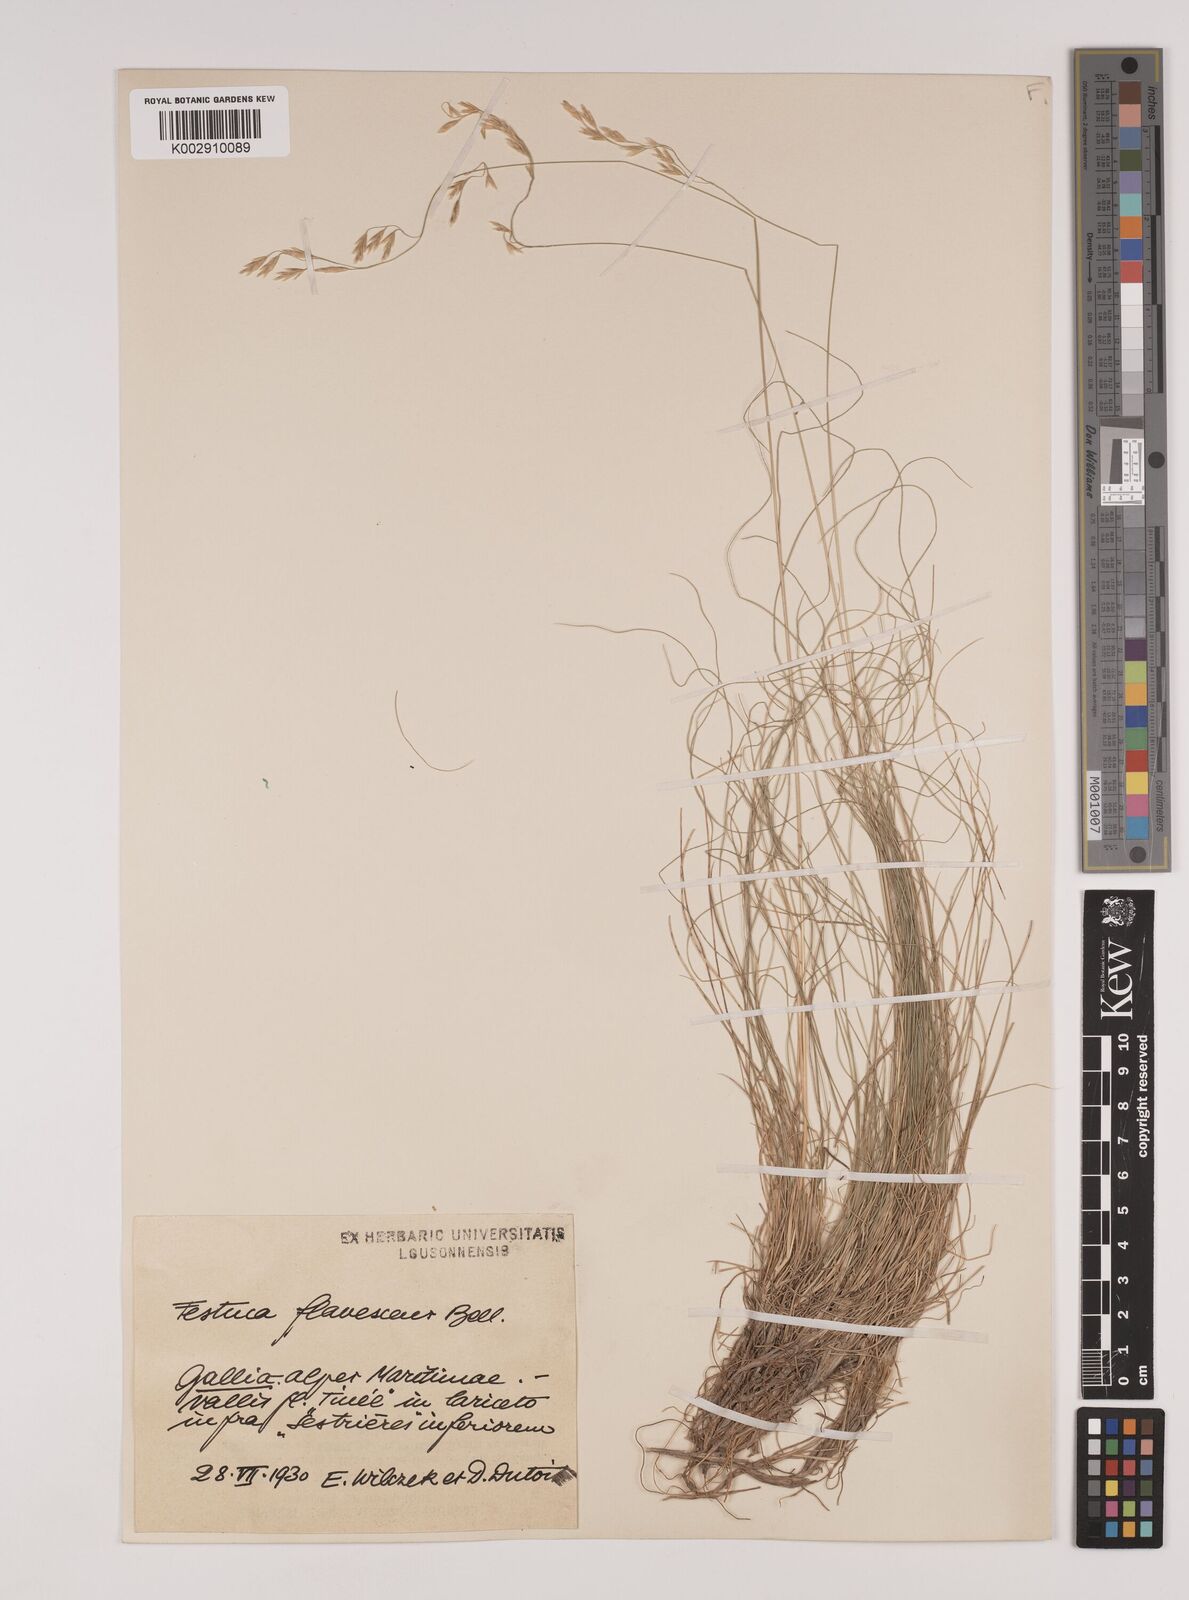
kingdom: Plantae
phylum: Tracheophyta
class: Liliopsida
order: Poales
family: Poaceae
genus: Festuca
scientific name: Festuca flavescens
